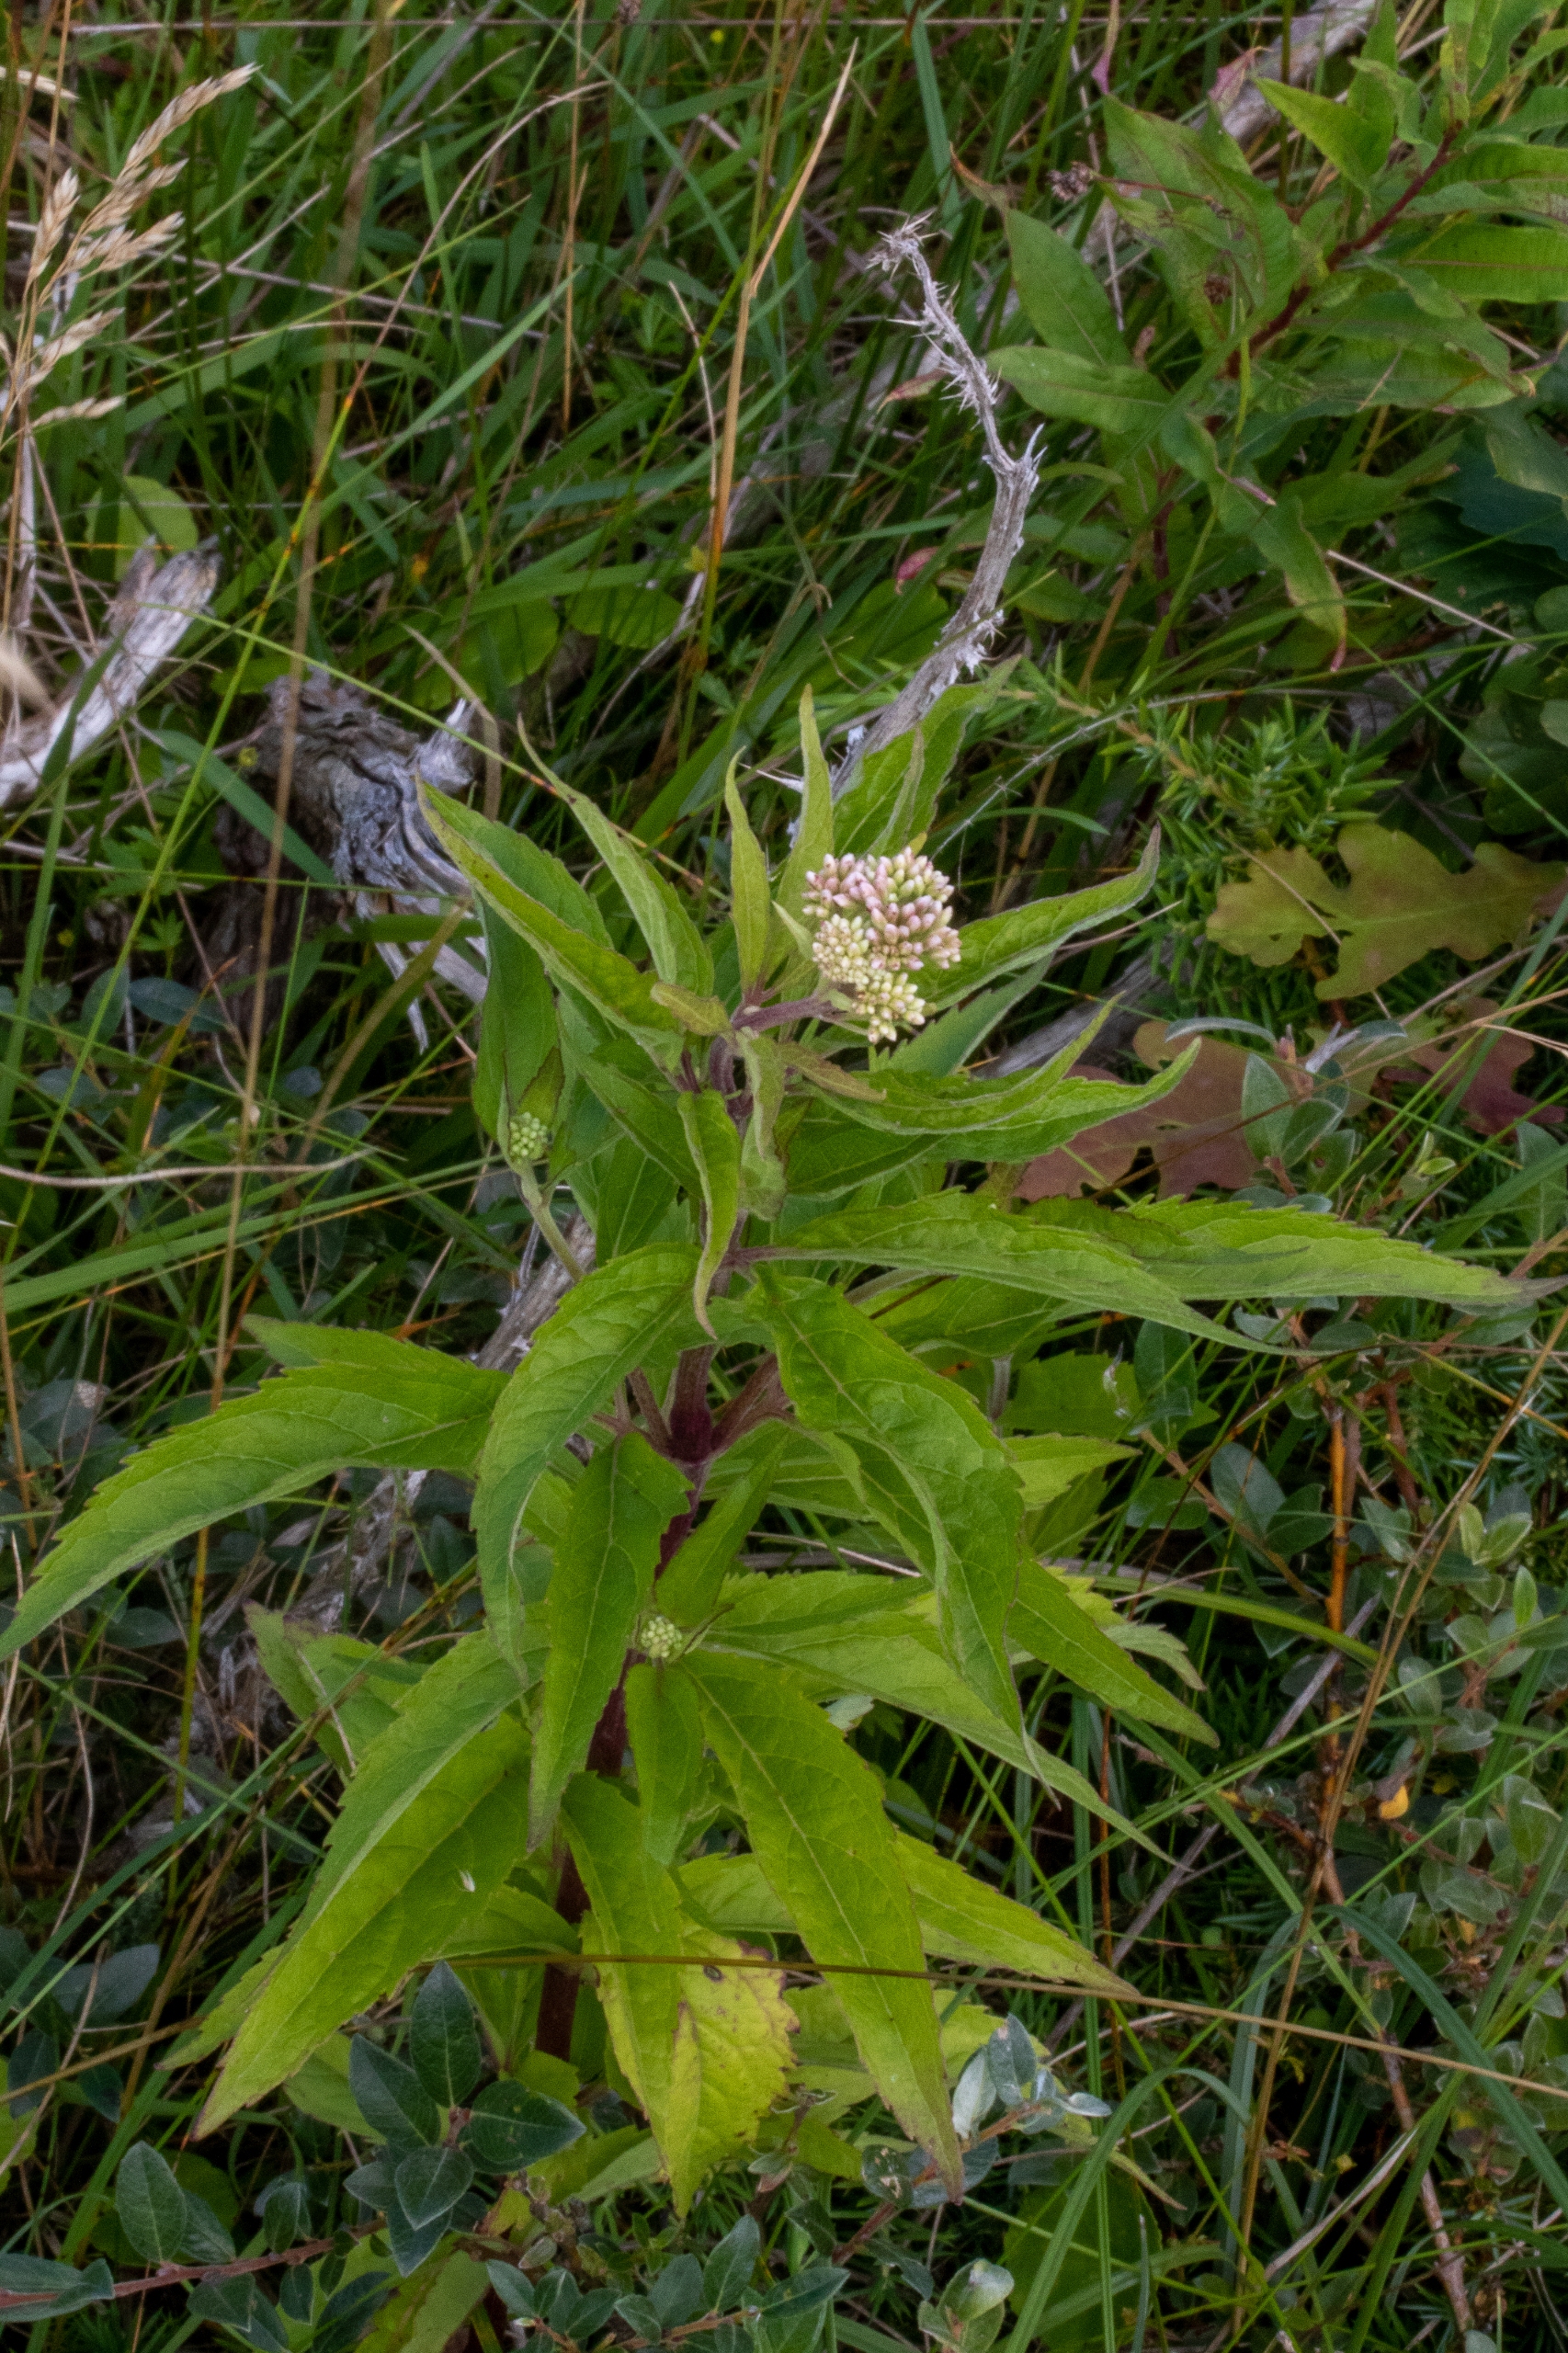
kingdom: Plantae
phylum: Tracheophyta
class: Magnoliopsida
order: Asterales
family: Asteraceae
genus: Eupatorium
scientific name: Eupatorium cannabinum
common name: Hjortetrøst
